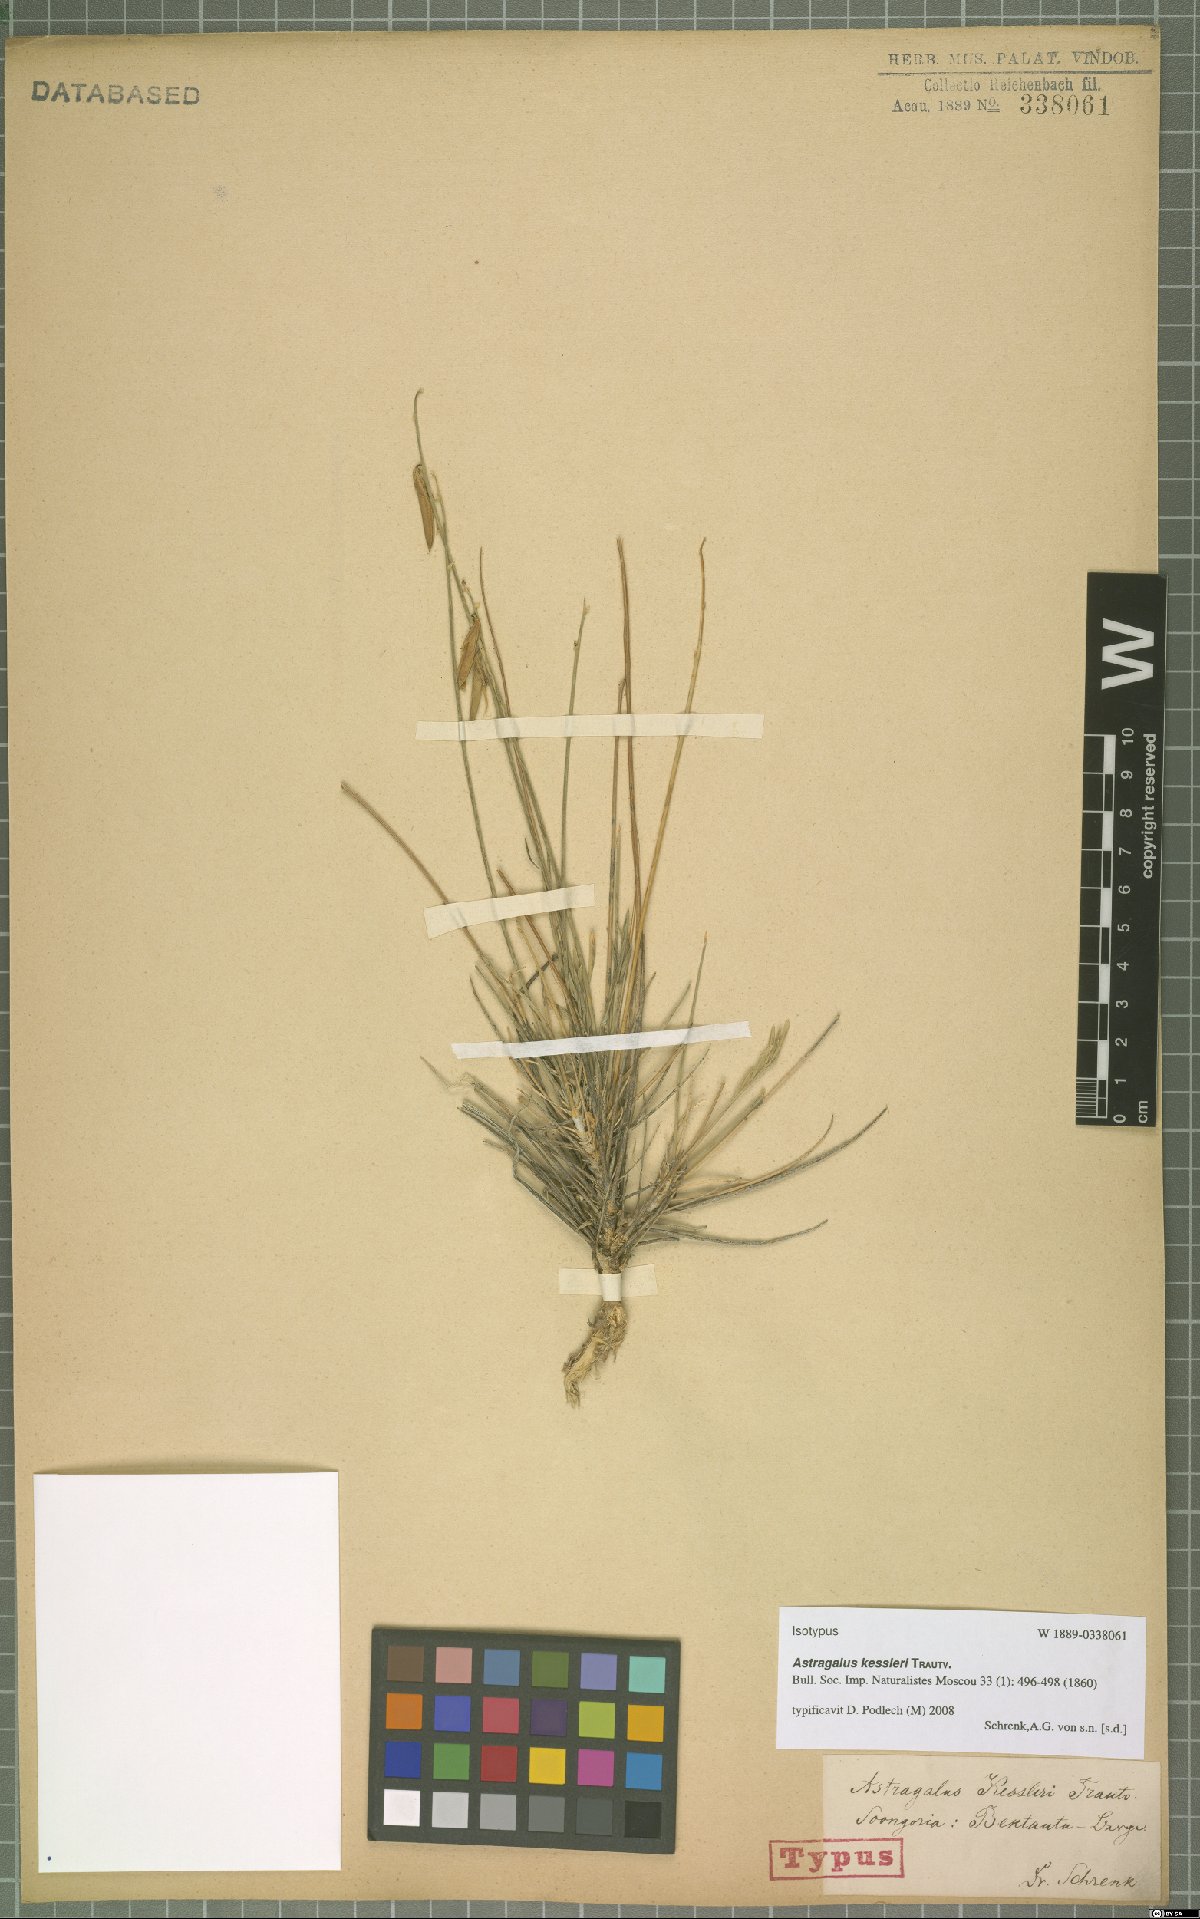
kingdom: Plantae
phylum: Tracheophyta
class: Magnoliopsida
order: Fabales
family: Fabaceae
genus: Astragalus
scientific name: Astragalus kessleri
